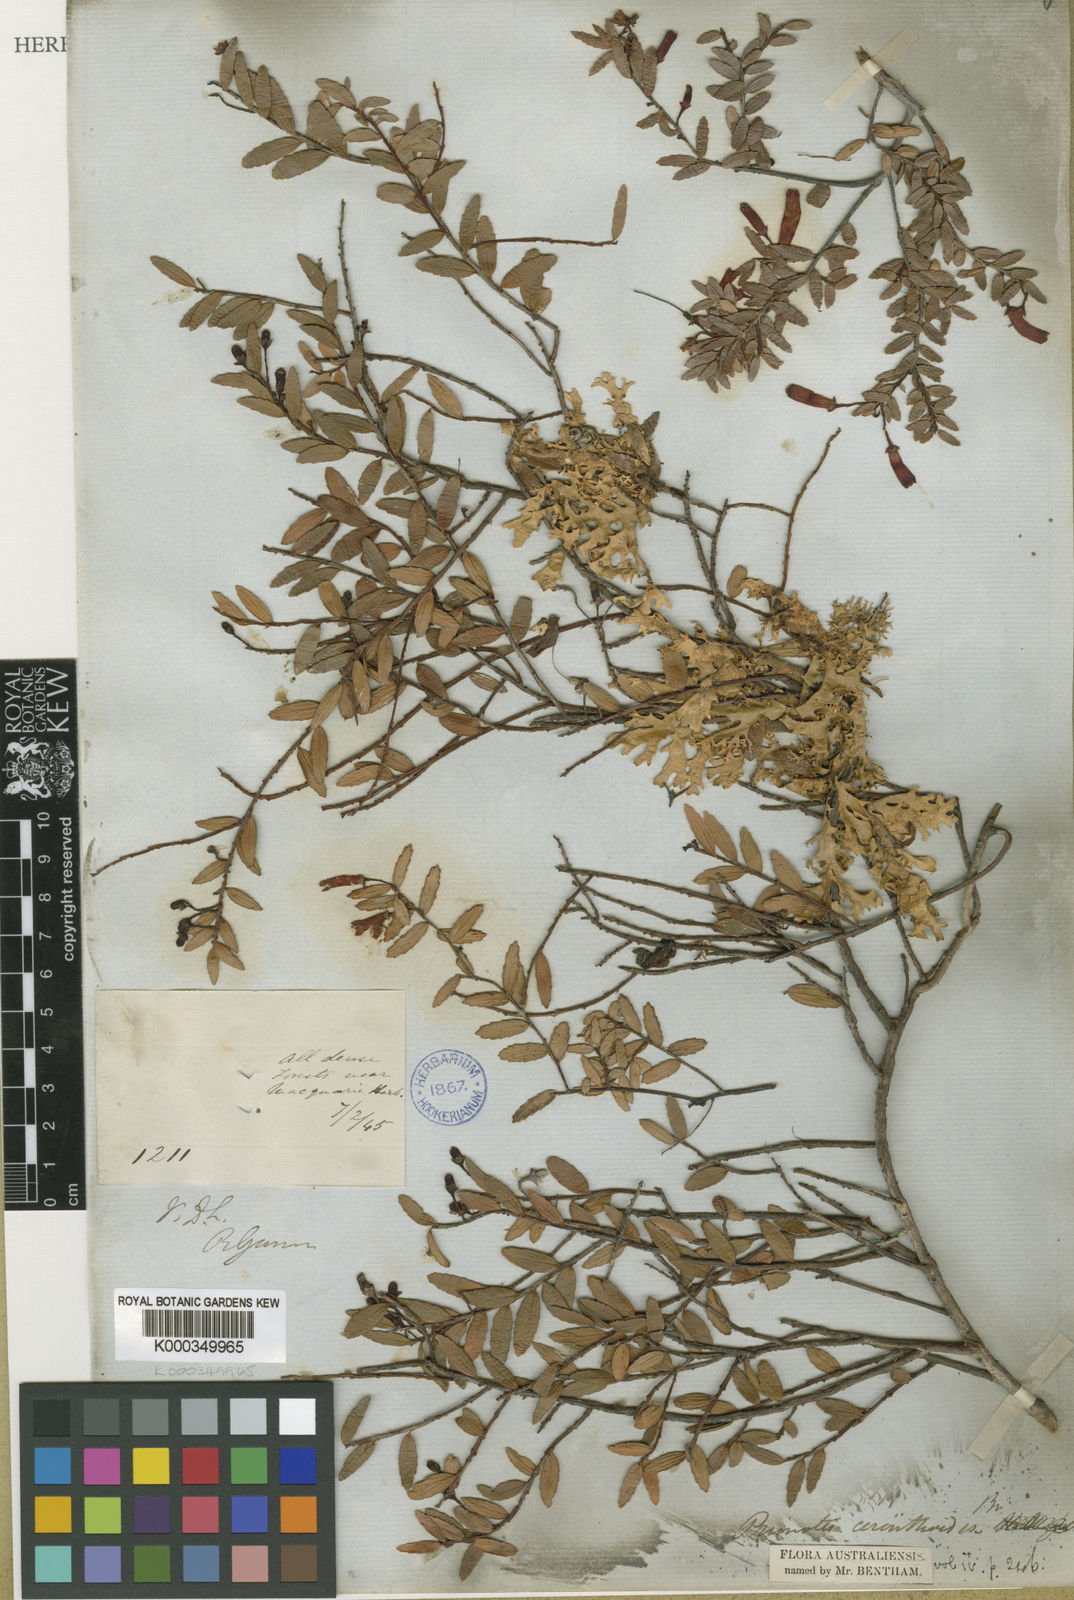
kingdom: Plantae
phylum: Tracheophyta
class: Magnoliopsida
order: Ericales
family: Ericaceae
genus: Prionotes
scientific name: Prionotes cerinthoides
